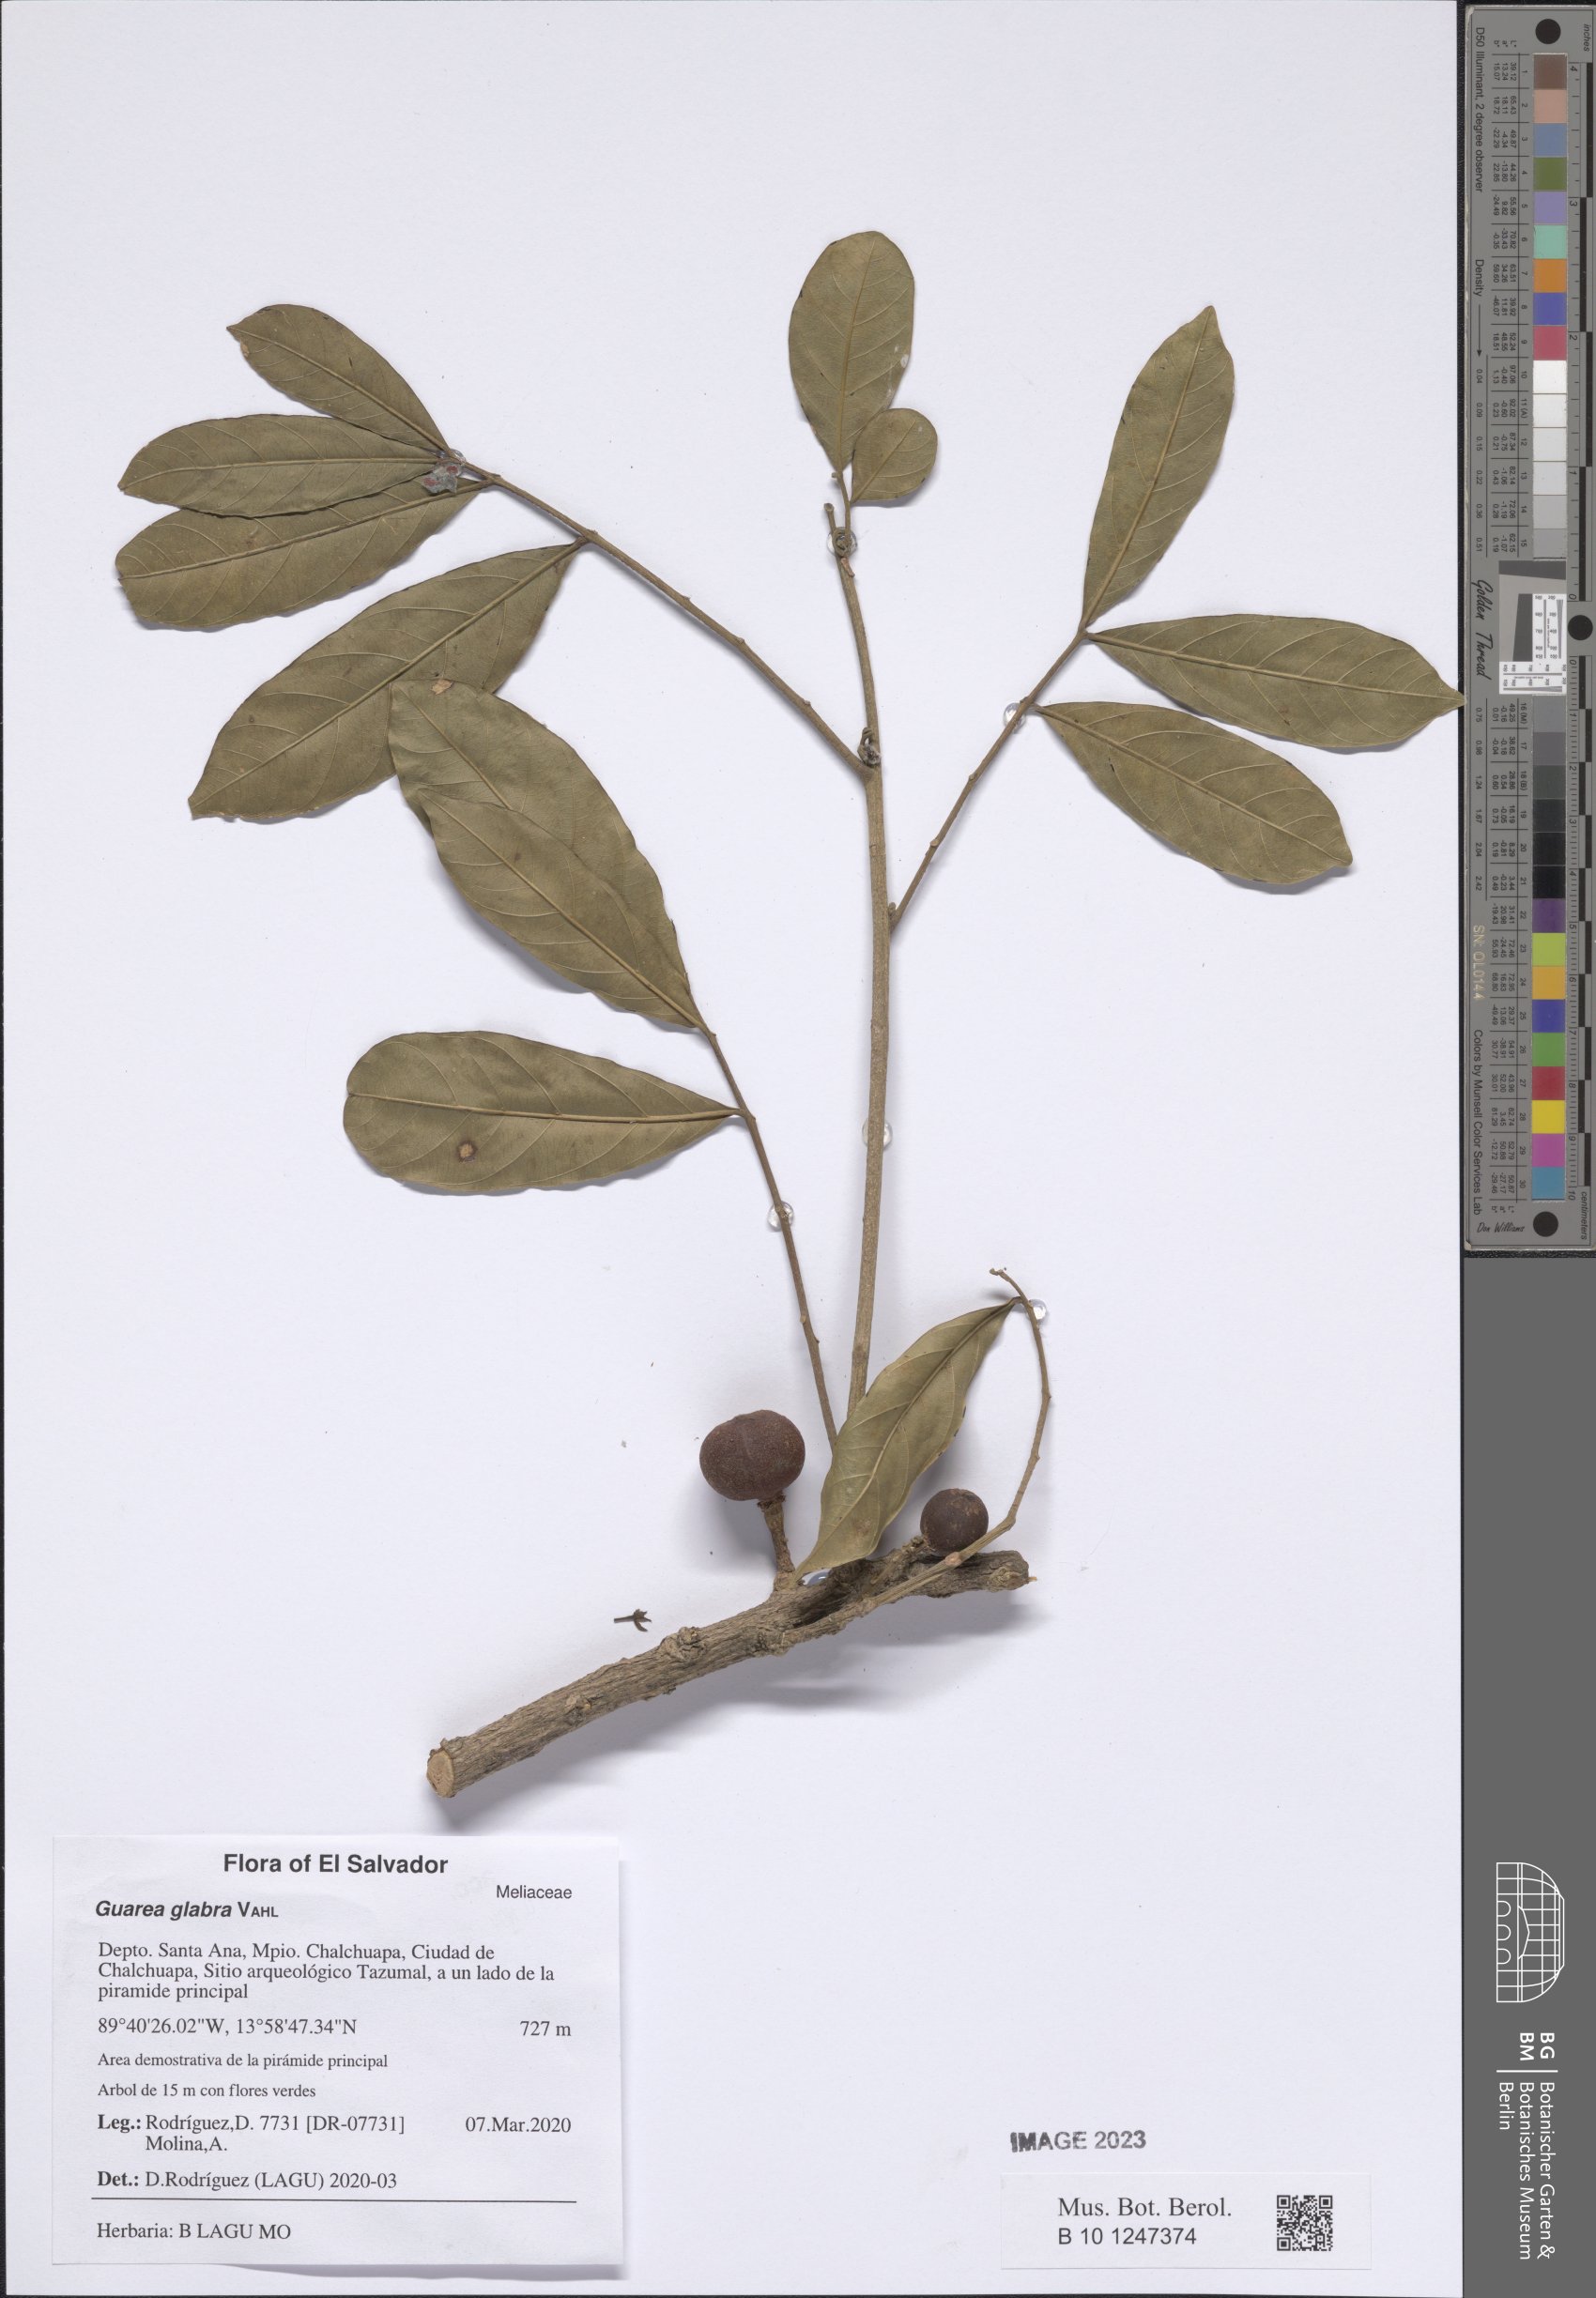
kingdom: Plantae
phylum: Tracheophyta
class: Magnoliopsida
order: Sapindales
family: Meliaceae
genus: Guarea
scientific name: Guarea glabra
